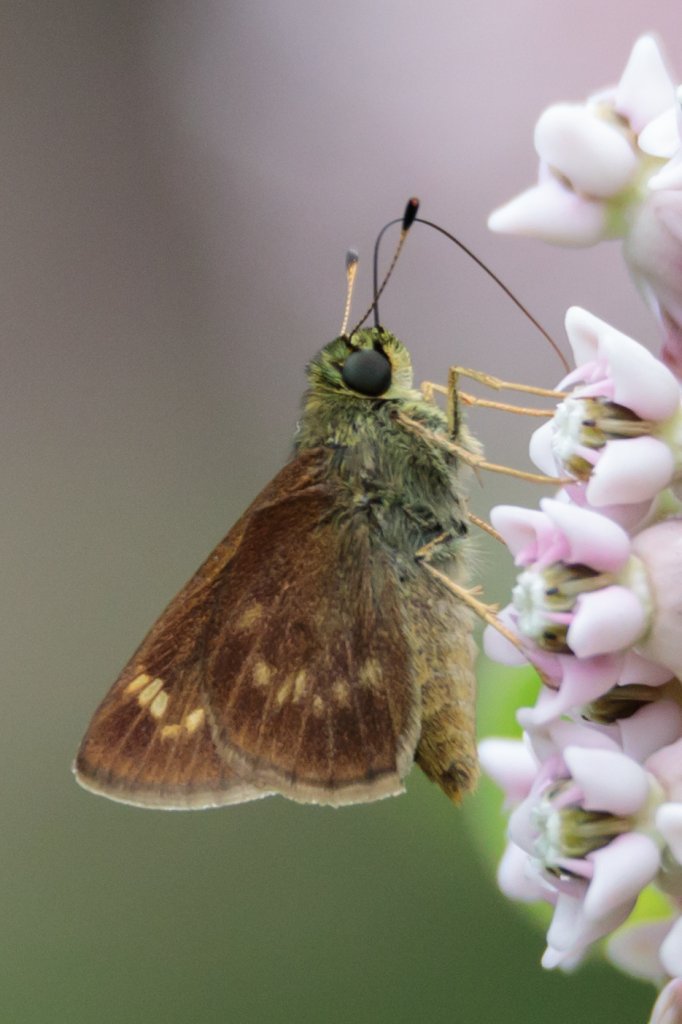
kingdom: Animalia
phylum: Arthropoda
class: Insecta
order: Lepidoptera
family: Hesperiidae
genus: Vernia
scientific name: Vernia verna
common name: Little Glassywing
